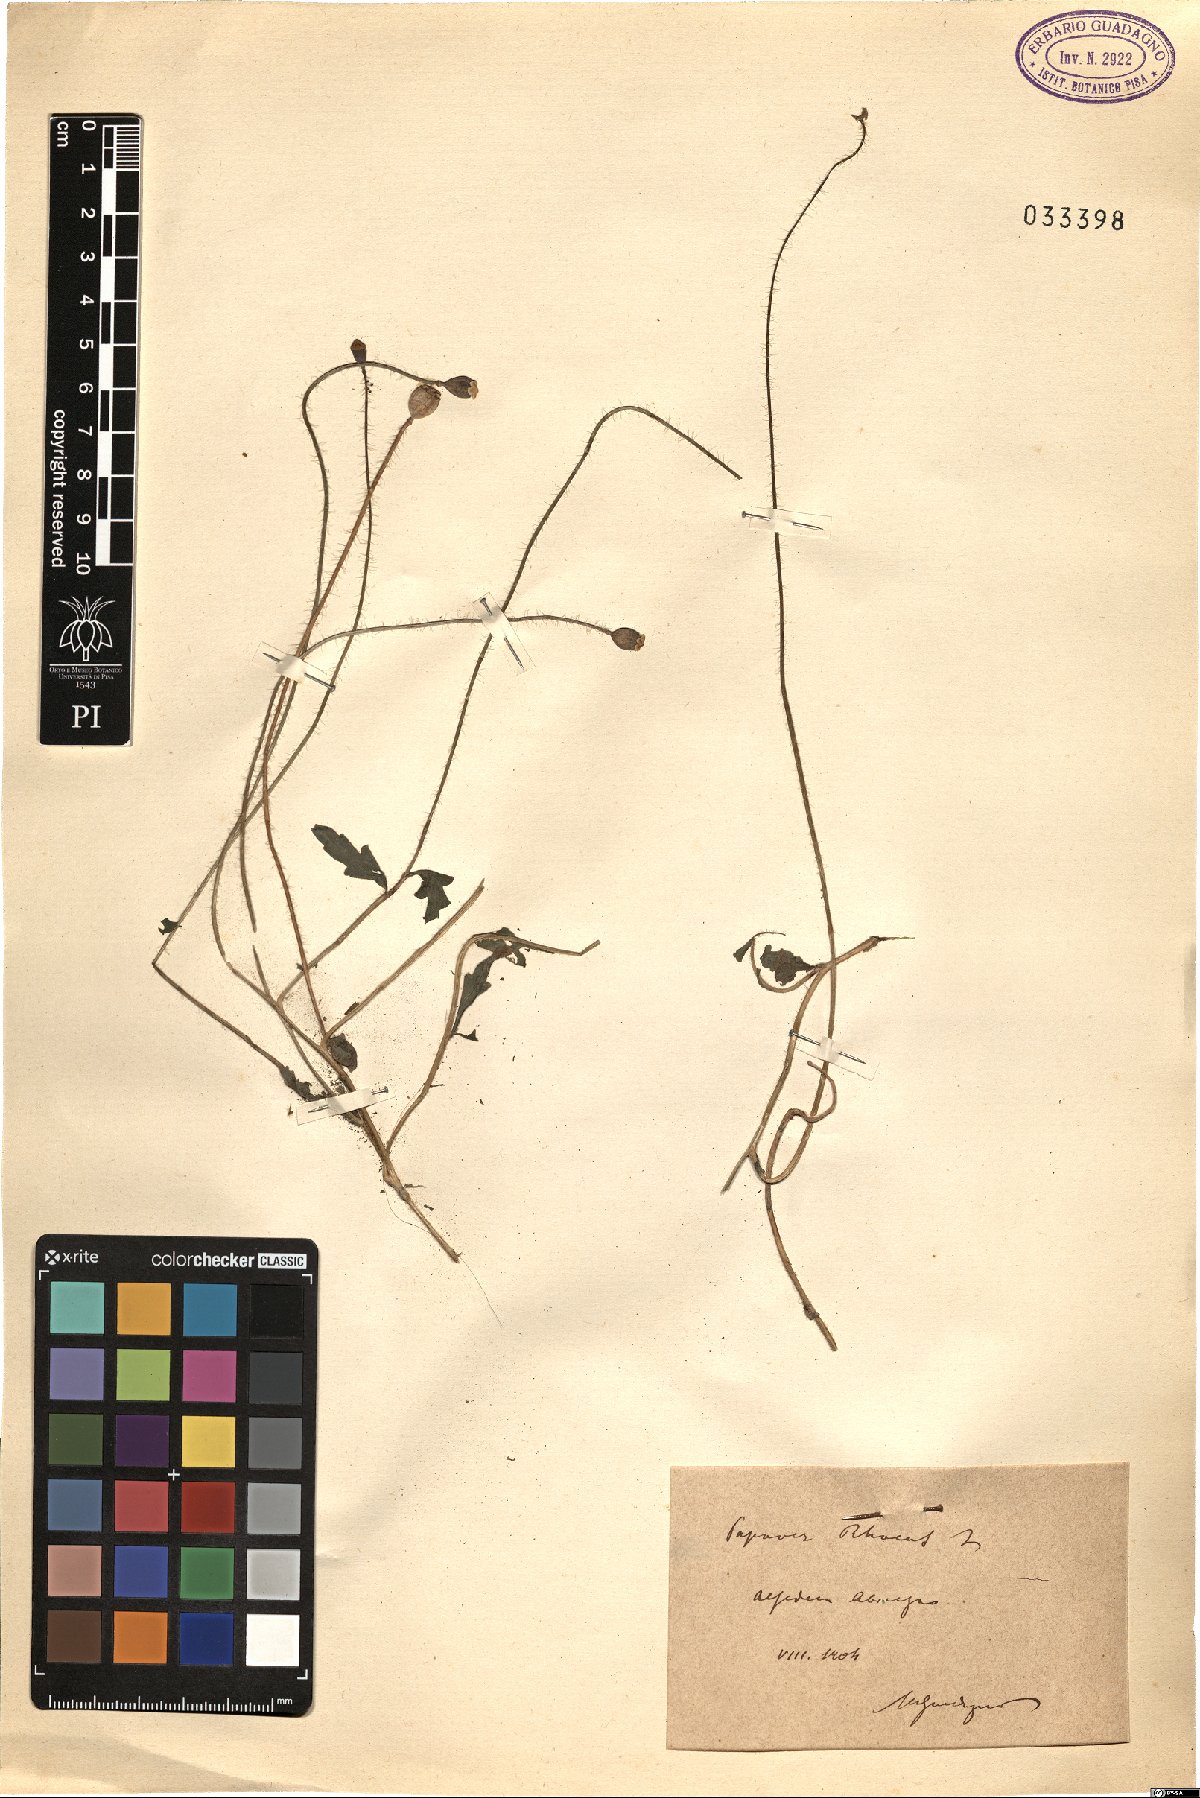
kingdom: Plantae
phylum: Tracheophyta
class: Magnoliopsida
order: Ranunculales
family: Papaveraceae
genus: Papaver
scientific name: Papaver rhoeas
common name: Corn poppy
